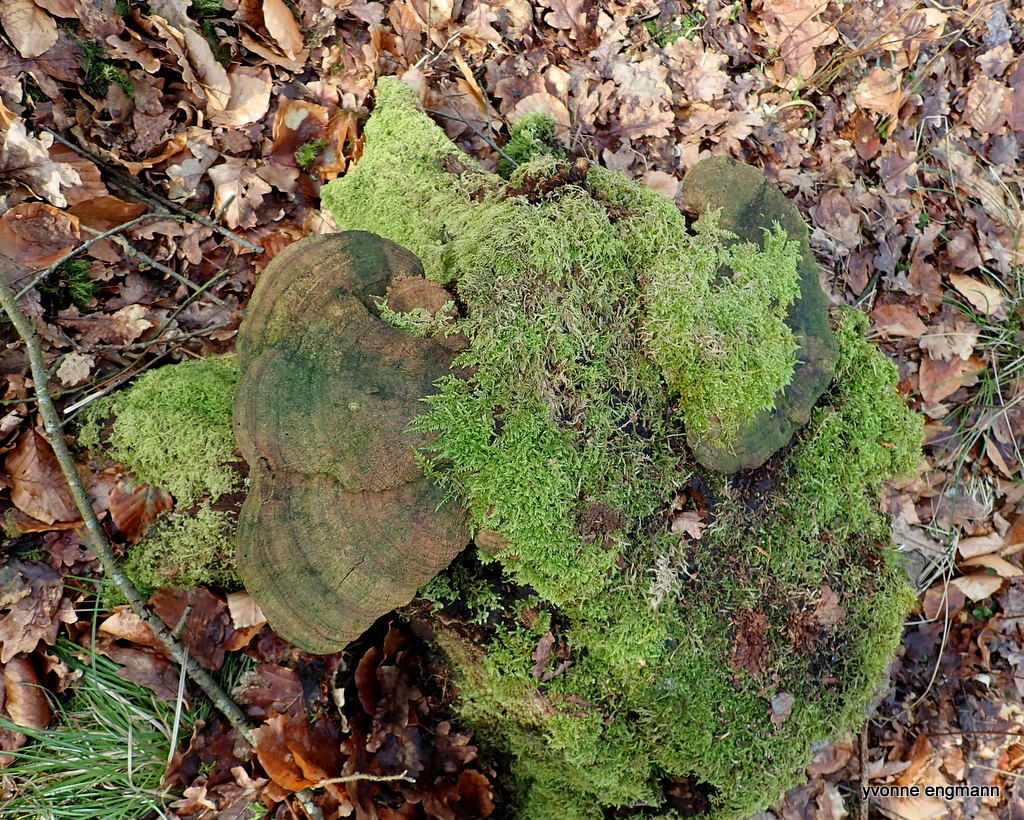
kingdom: Fungi
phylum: Basidiomycota
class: Agaricomycetes
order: Polyporales
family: Fomitopsidaceae
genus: Daedalea
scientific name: Daedalea quercina
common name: ege-labyrintsvamp
